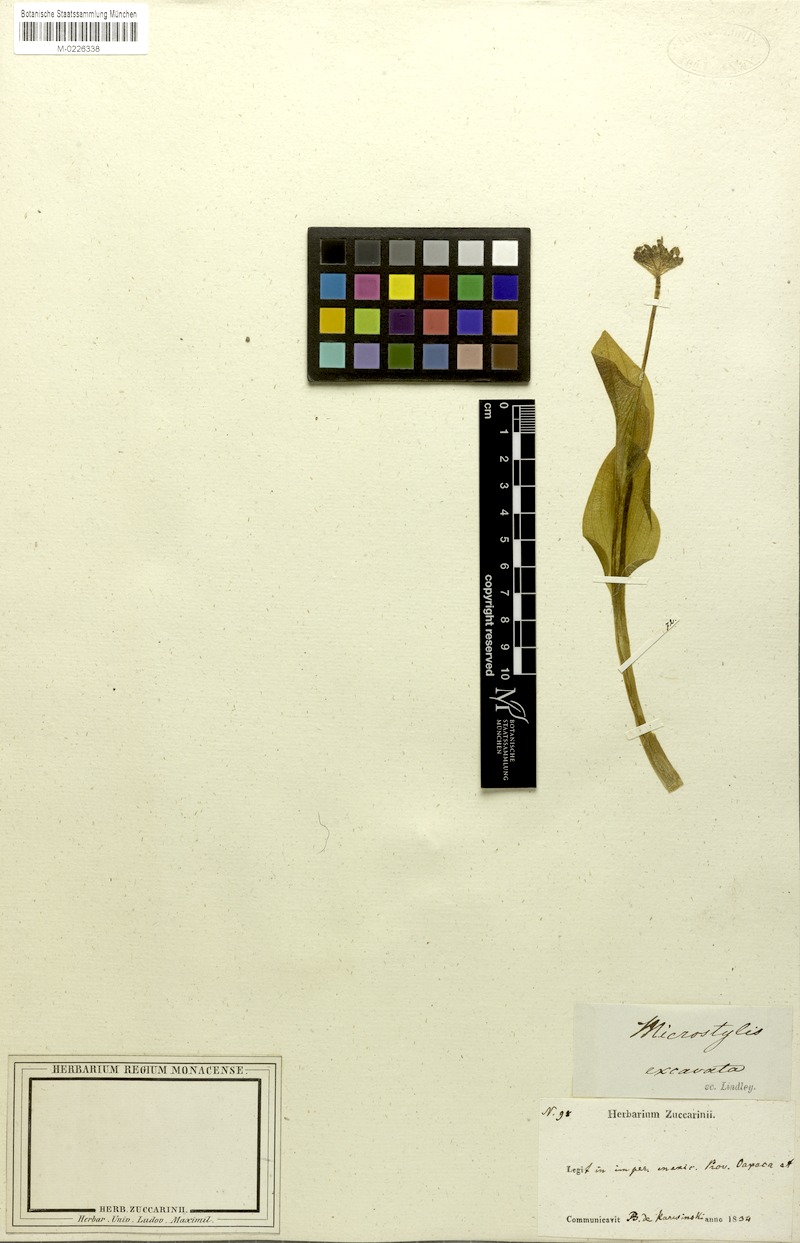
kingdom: Plantae
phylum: Tracheophyta
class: Liliopsida
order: Asparagales
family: Orchidaceae
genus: Malaxis
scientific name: Malaxis excavata
